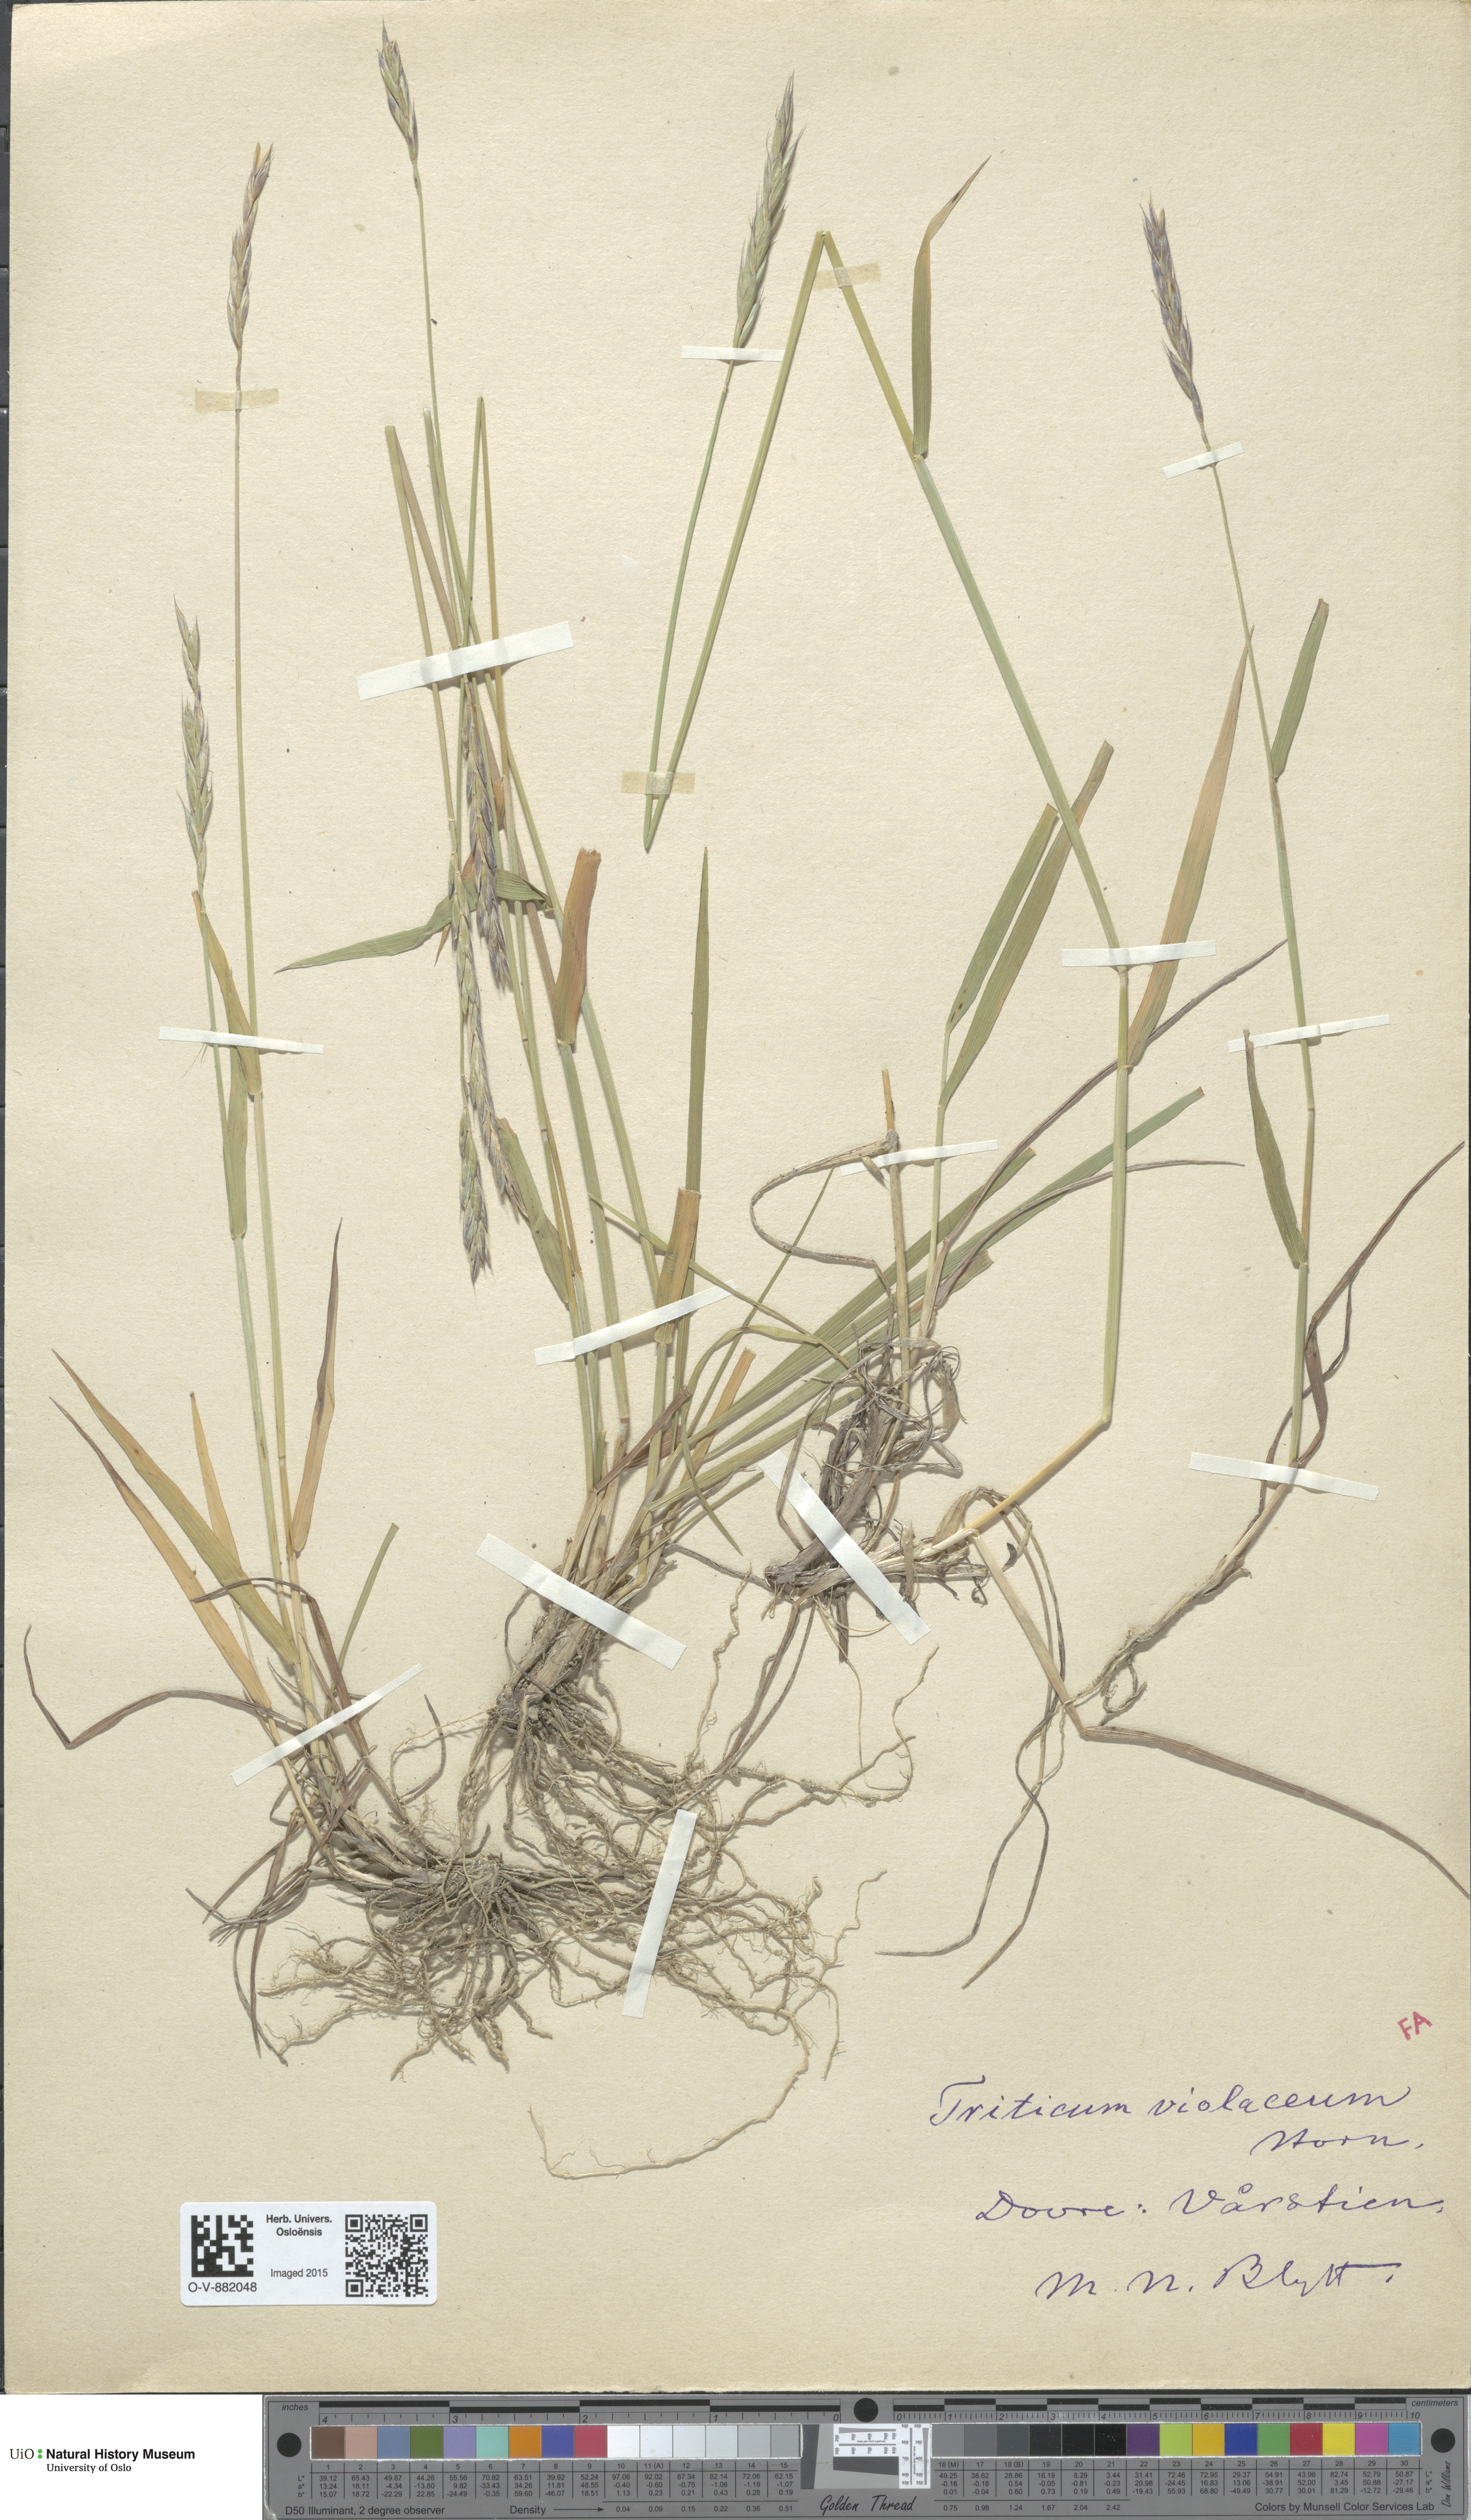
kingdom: Plantae
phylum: Tracheophyta
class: Liliopsida
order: Poales
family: Poaceae
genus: Elymus
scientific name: Elymus macrourus
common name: Northern wheatgrass
